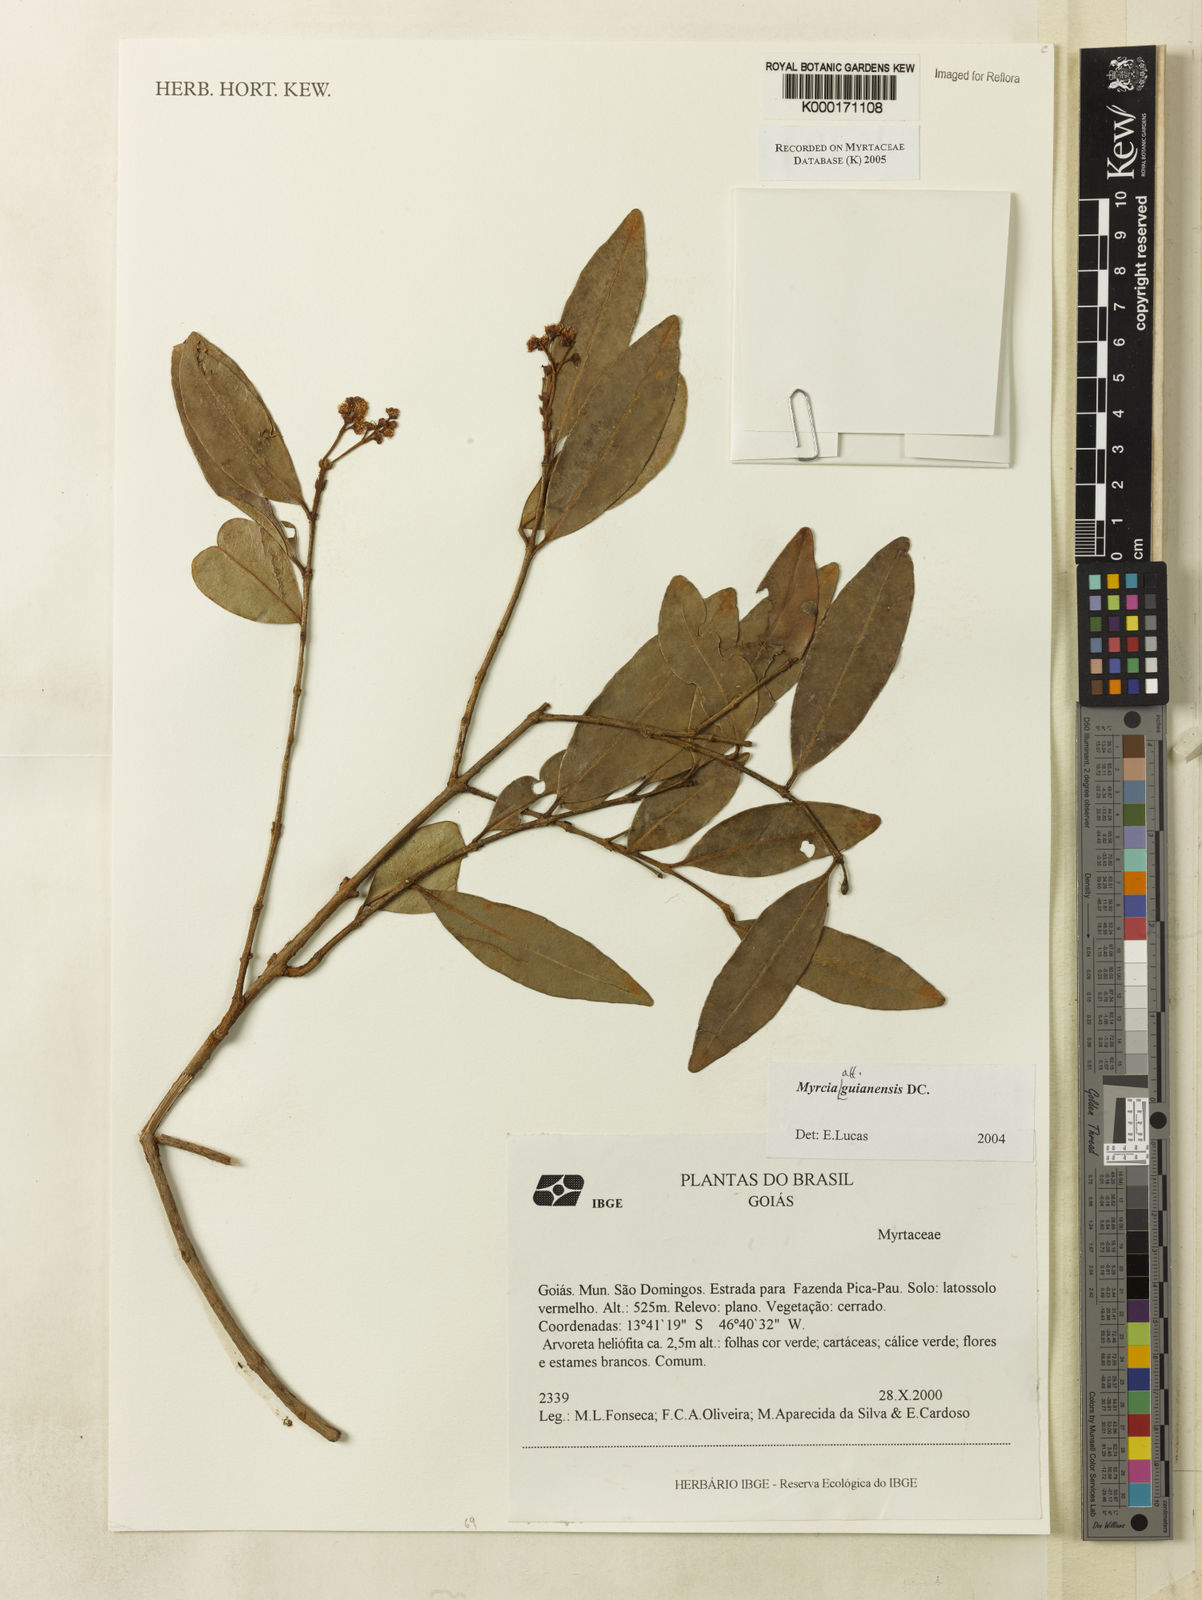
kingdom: Plantae
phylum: Tracheophyta
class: Magnoliopsida
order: Myrtales
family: Myrtaceae
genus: Myrcia
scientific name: Myrcia guianensis
